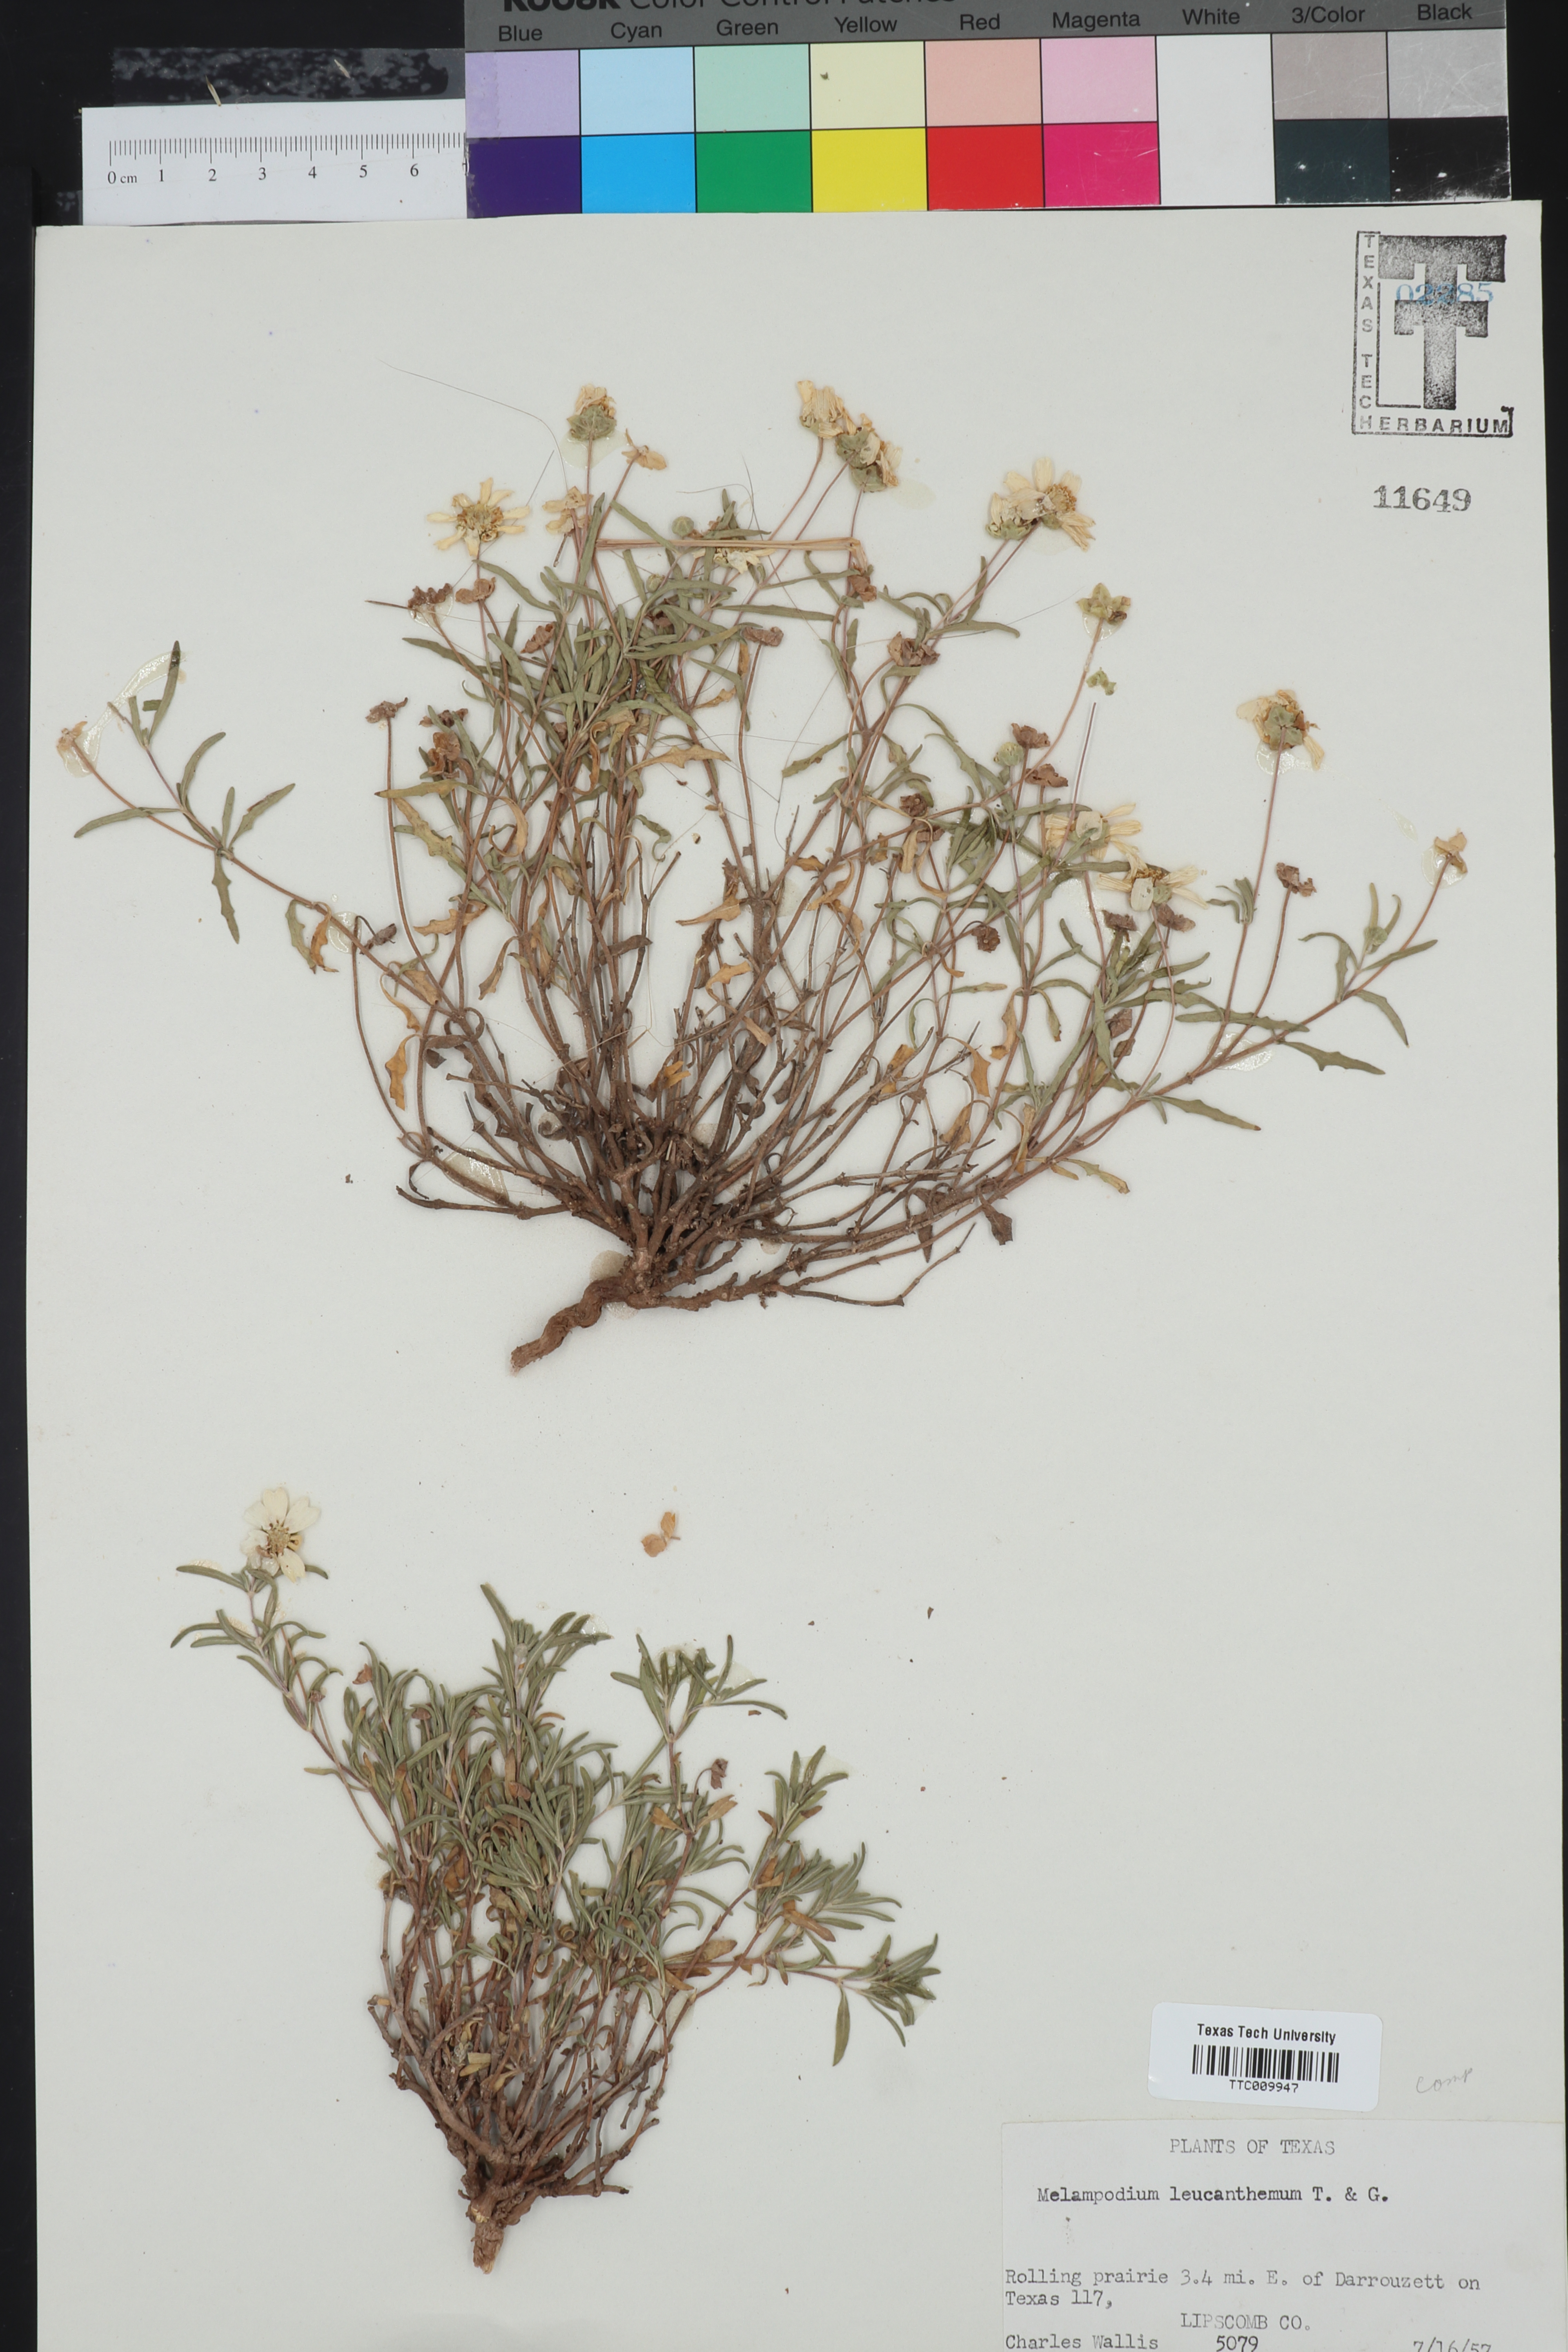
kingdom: Plantae
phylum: Tracheophyta
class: Magnoliopsida
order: Asterales
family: Asteraceae
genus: Melampodium
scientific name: Melampodium leucanthum
